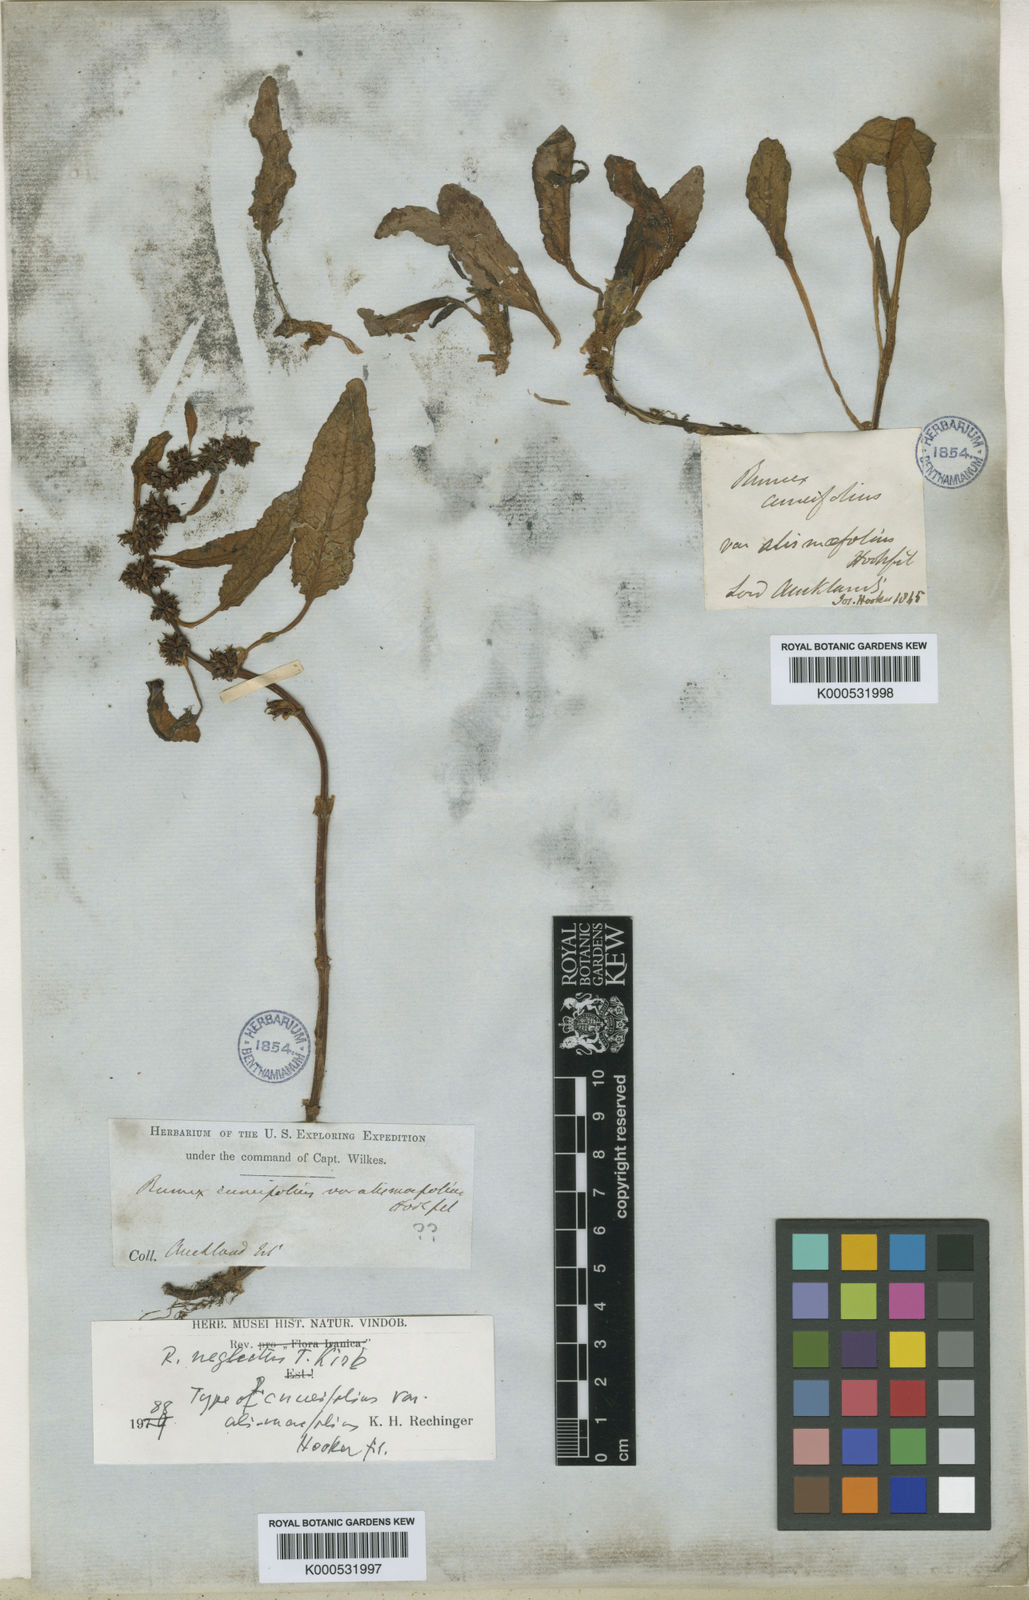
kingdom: Plantae
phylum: Tracheophyta
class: Magnoliopsida
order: Caryophyllales
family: Polygonaceae
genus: Rumex
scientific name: Rumex cuneifolius
